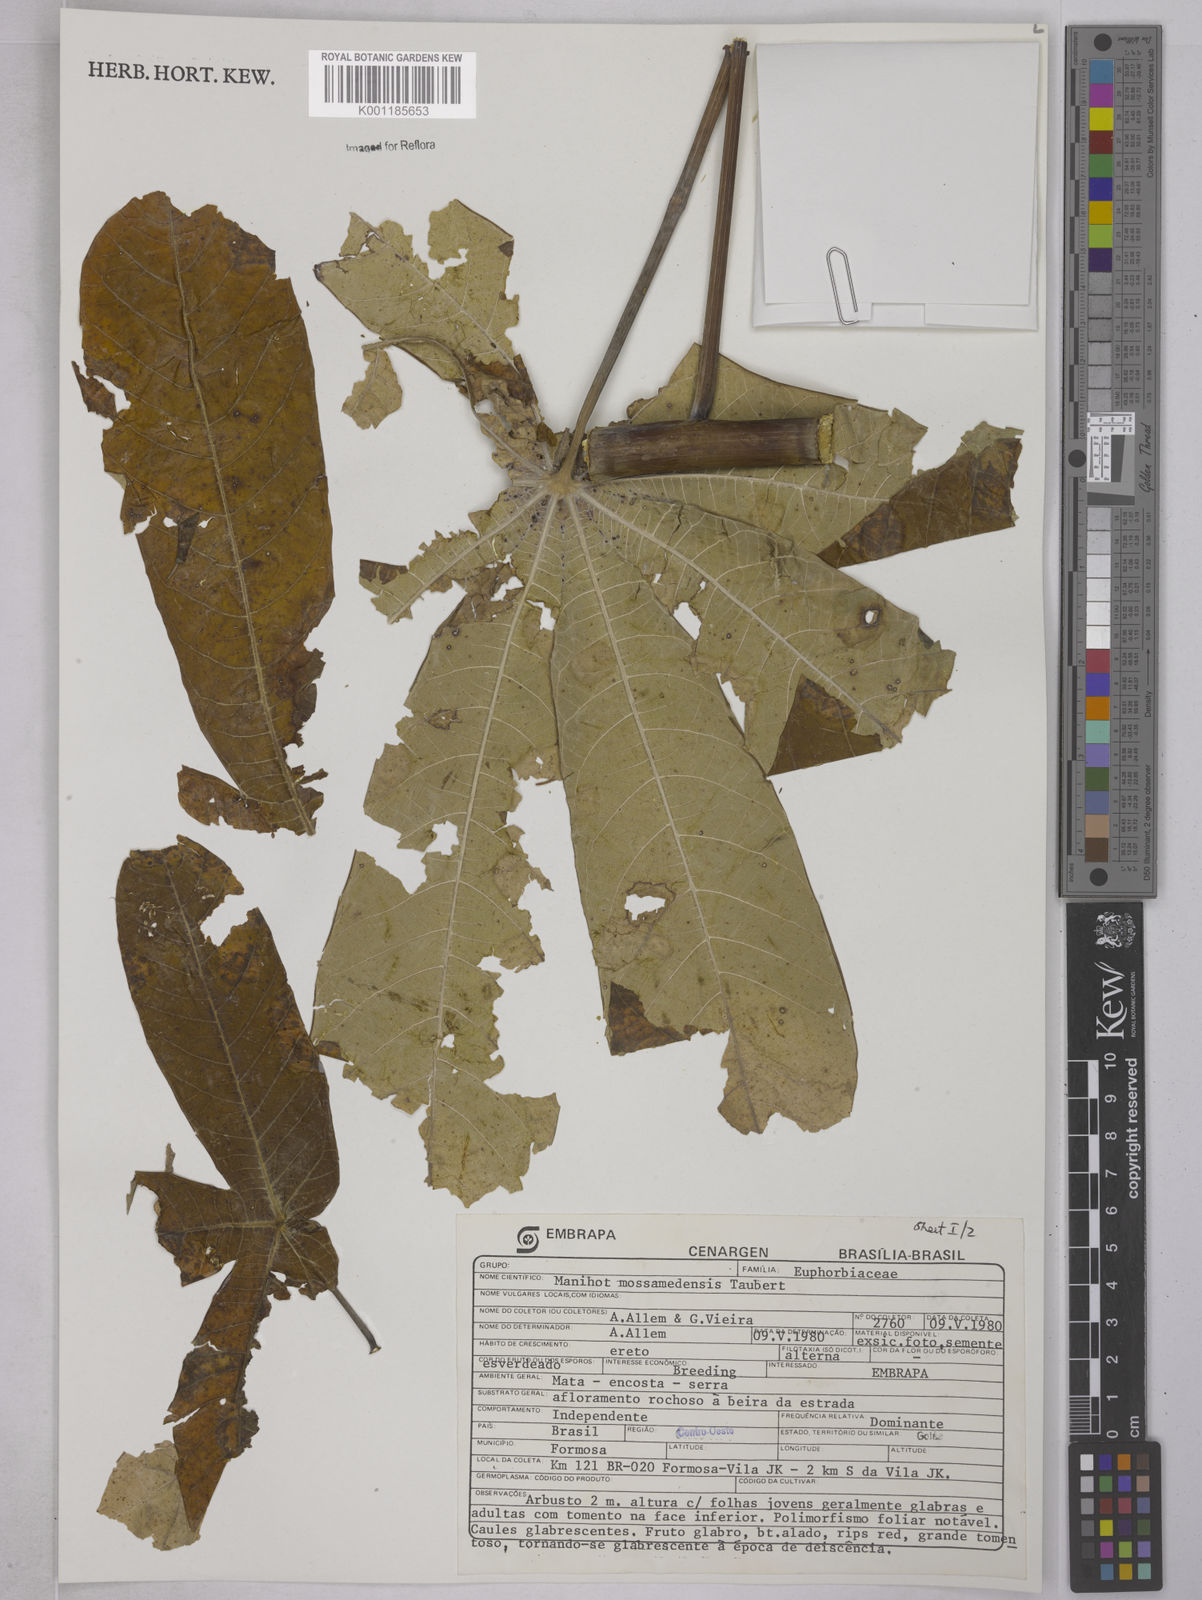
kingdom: Plantae
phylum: Tracheophyta
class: Magnoliopsida
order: Malpighiales
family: Euphorbiaceae
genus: Manihot
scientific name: Manihot mossamedensis
